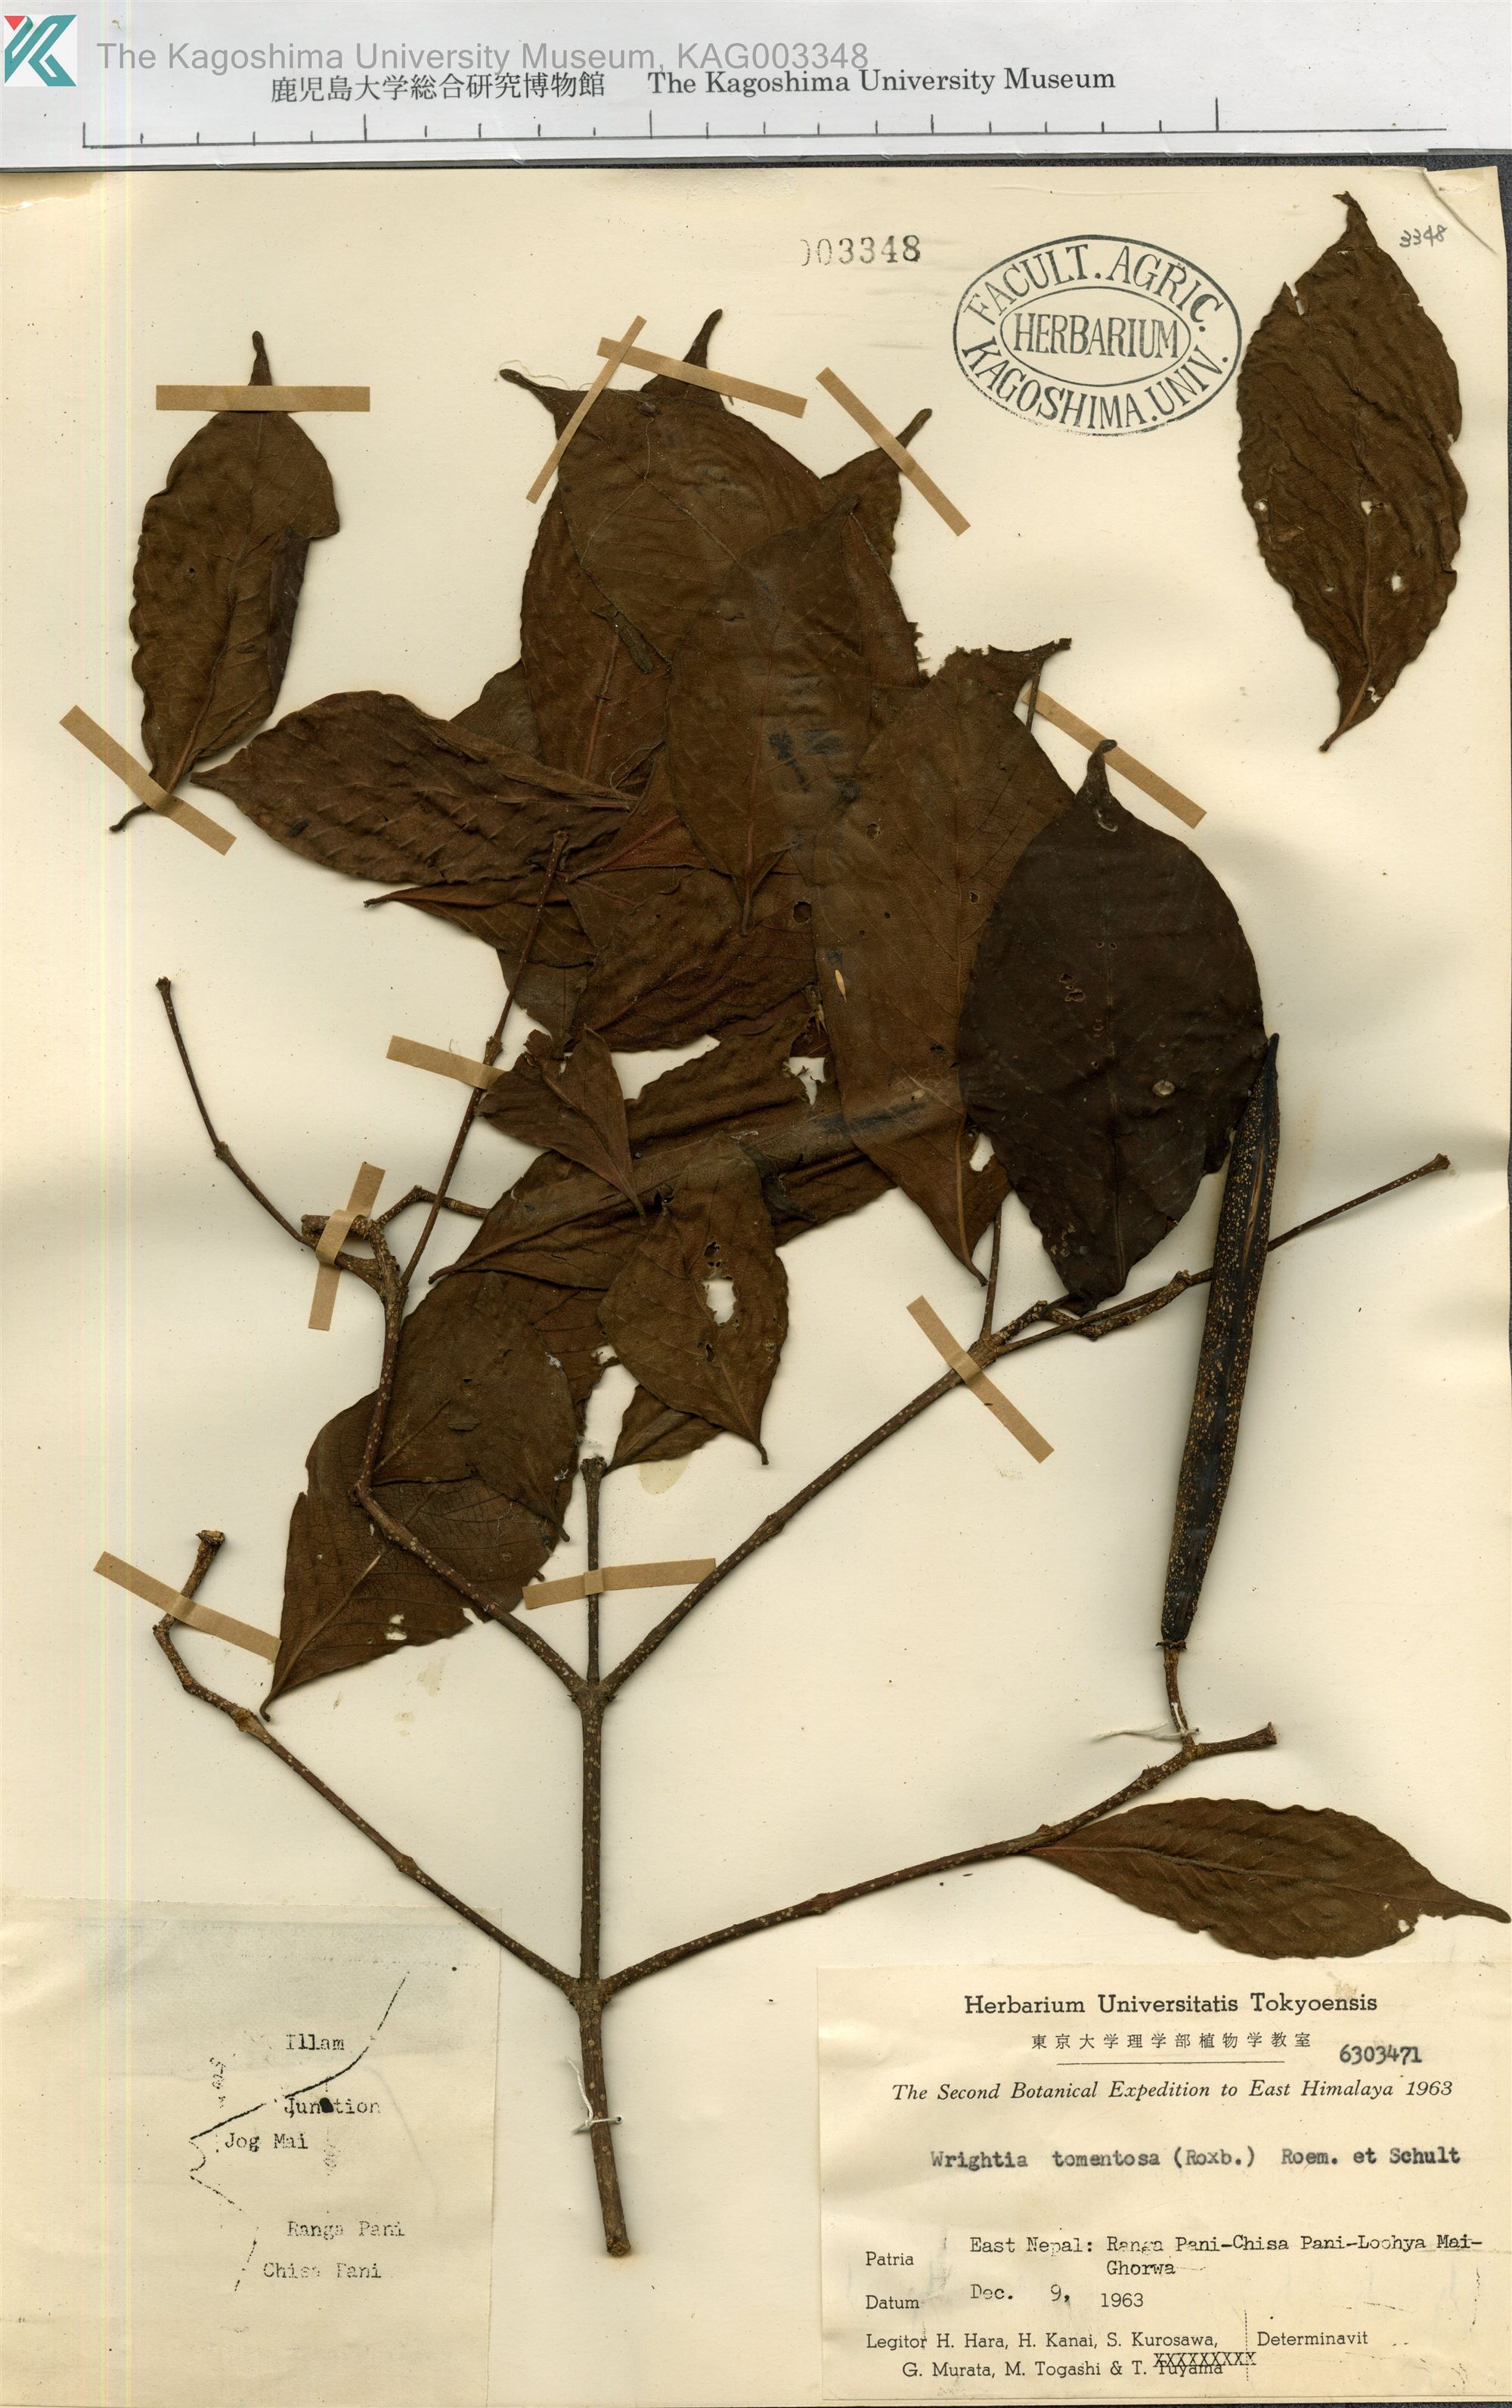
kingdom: Plantae
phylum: Tracheophyta
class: Magnoliopsida
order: Gentianales
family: Apocynaceae
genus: Wrightia
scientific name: Wrightia arborea
